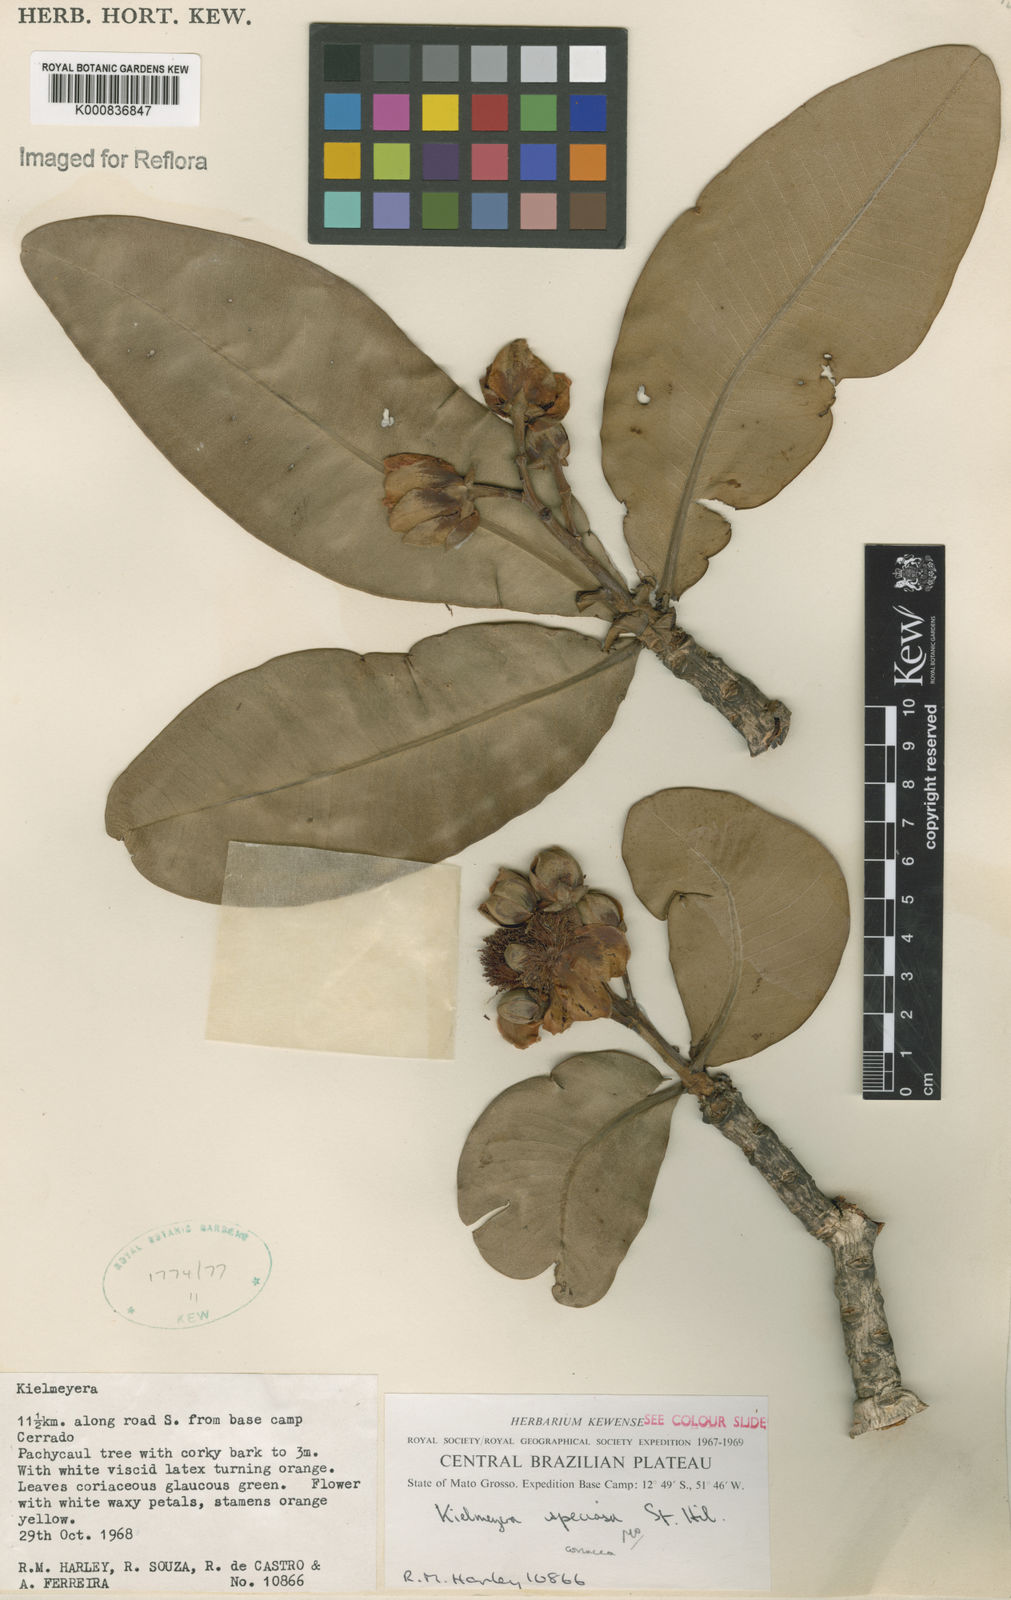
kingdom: Plantae
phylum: Tracheophyta
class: Magnoliopsida
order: Malpighiales
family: Calophyllaceae
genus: Kielmeyera
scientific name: Kielmeyera coriacea
